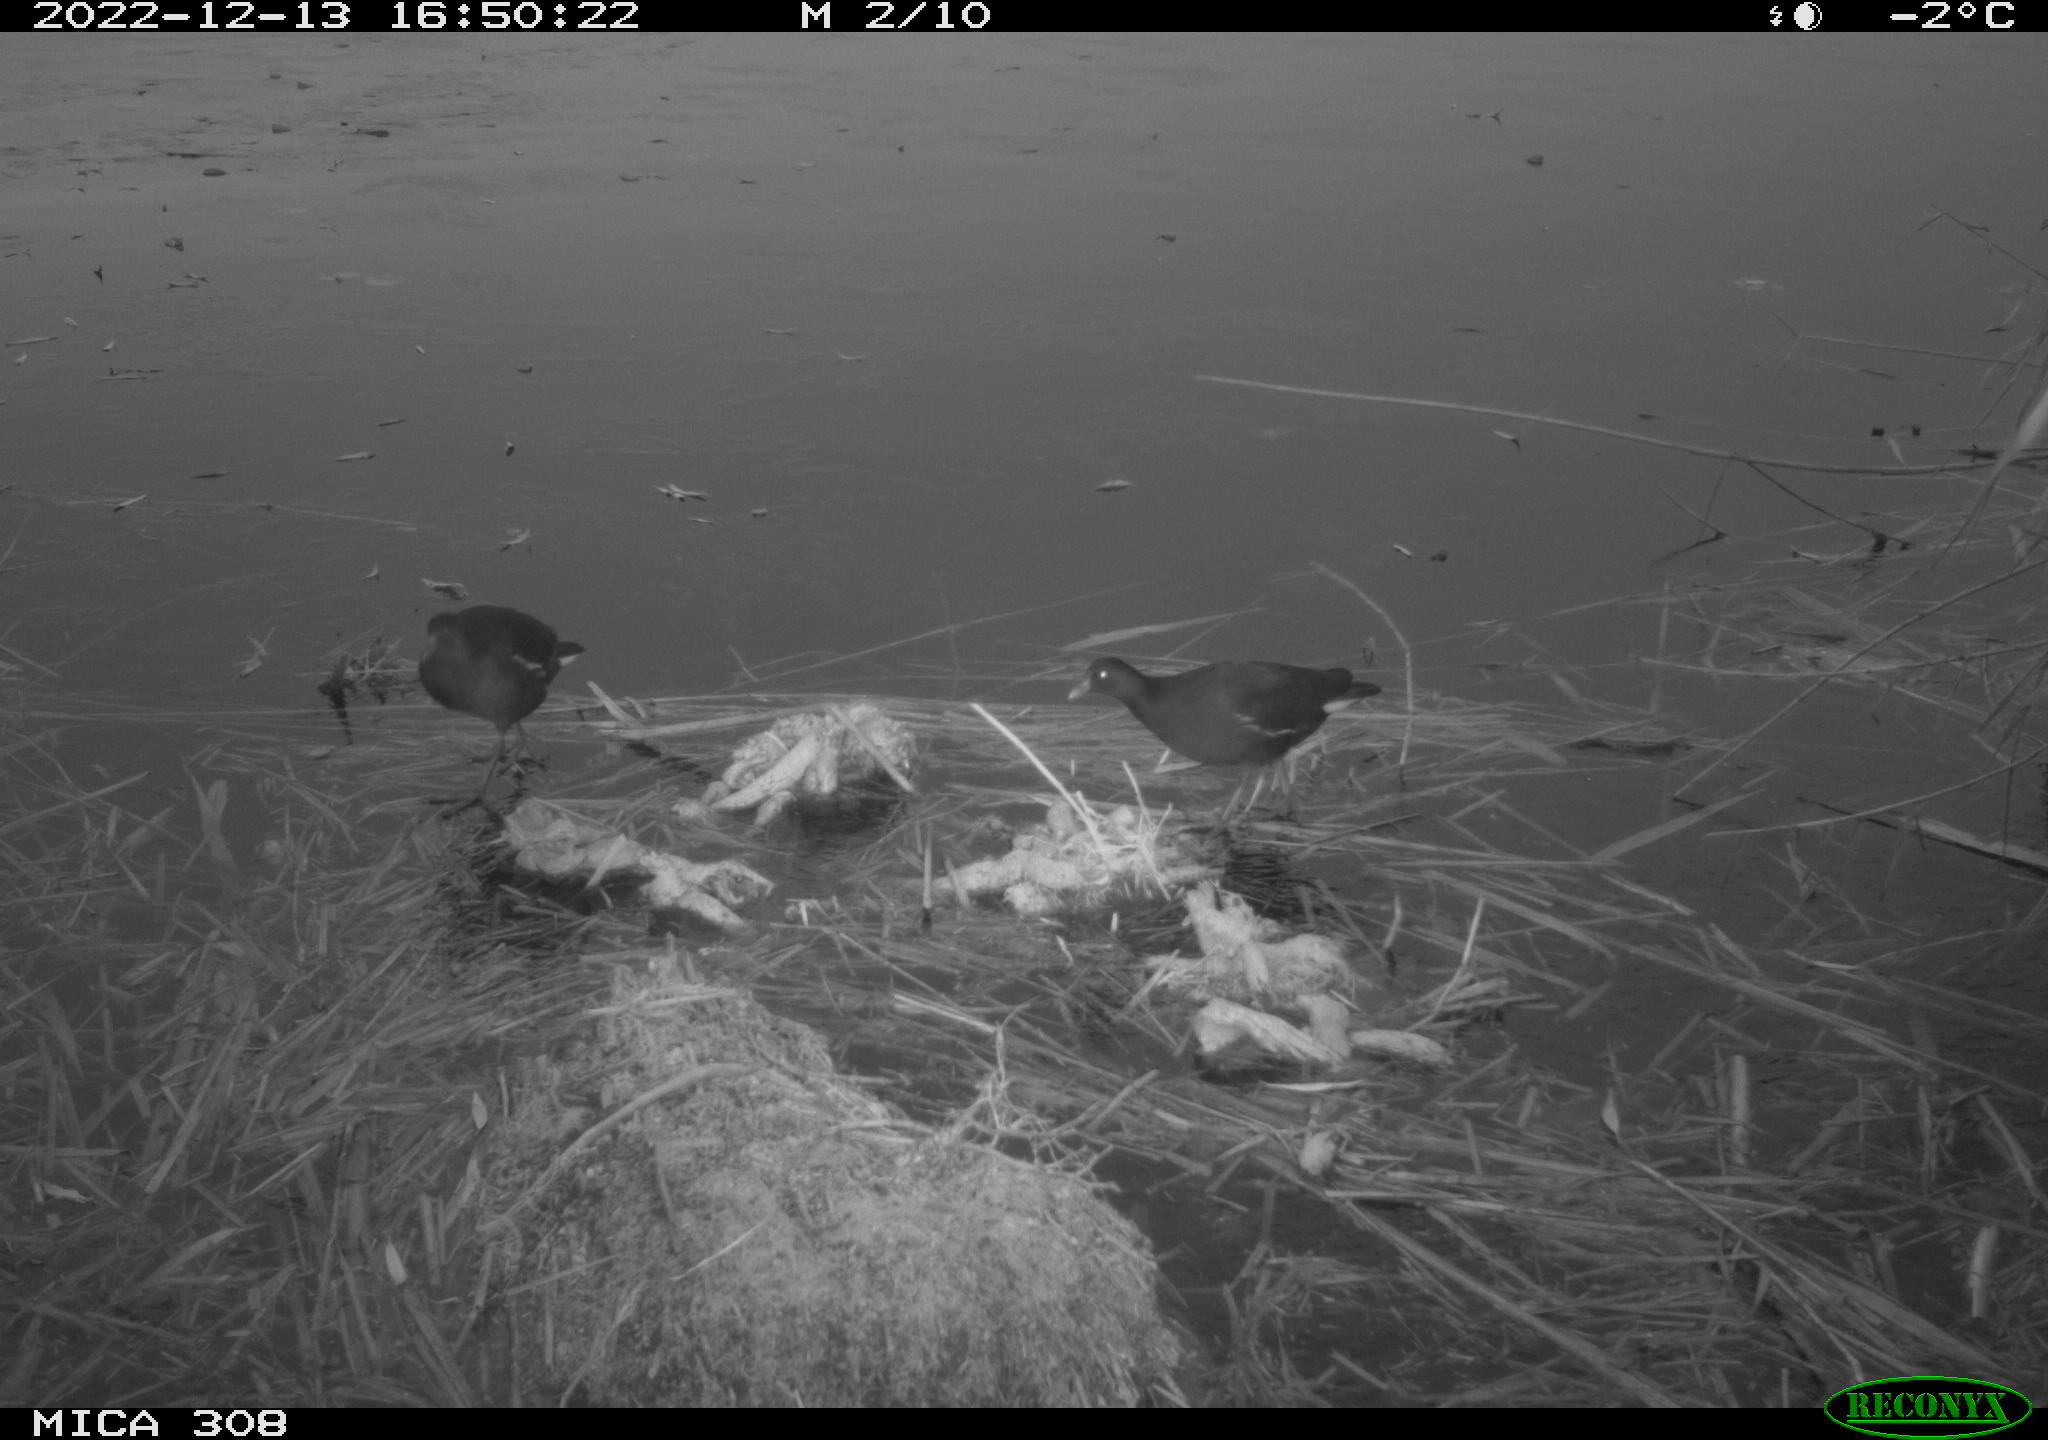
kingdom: Animalia
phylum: Chordata
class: Aves
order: Gruiformes
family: Rallidae
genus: Gallinula
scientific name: Gallinula chloropus
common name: Common moorhen
